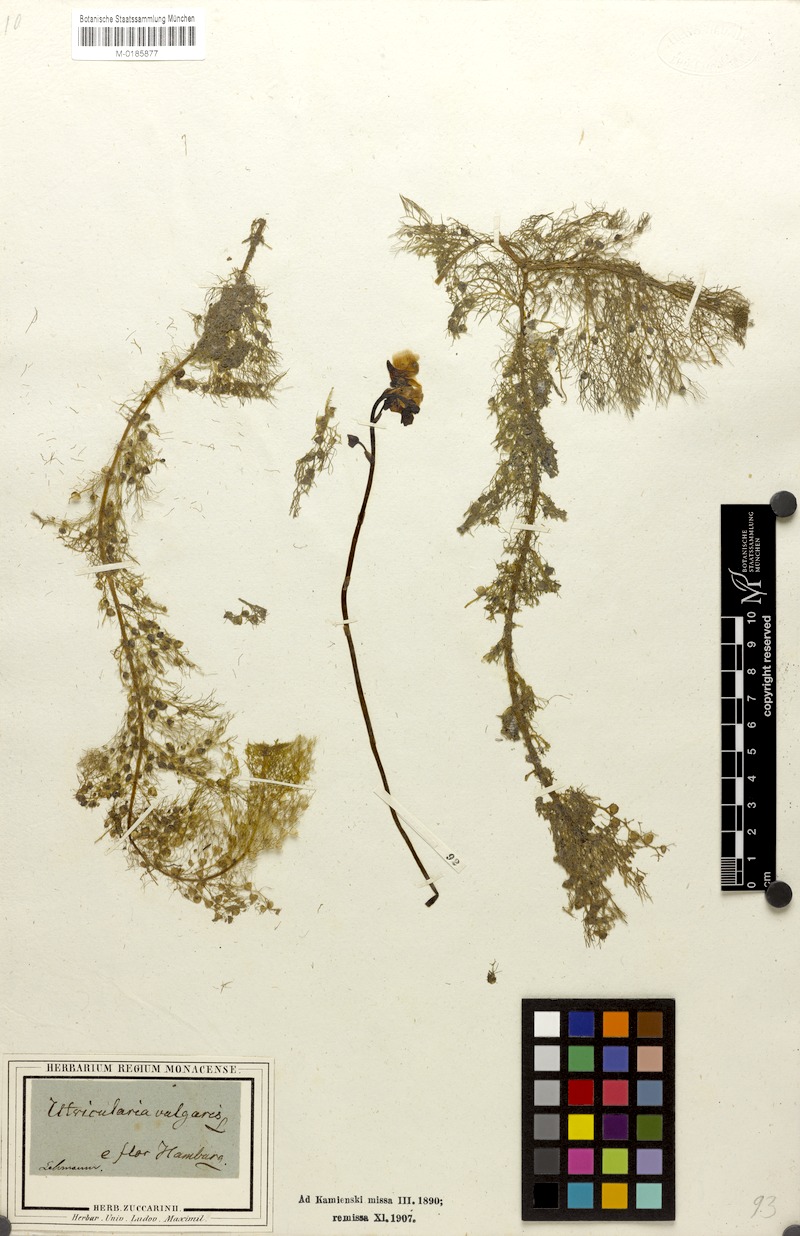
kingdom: Plantae
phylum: Tracheophyta
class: Magnoliopsida
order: Lamiales
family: Lentibulariaceae
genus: Utricularia
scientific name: Utricularia vulgaris
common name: Greater bladderwort
